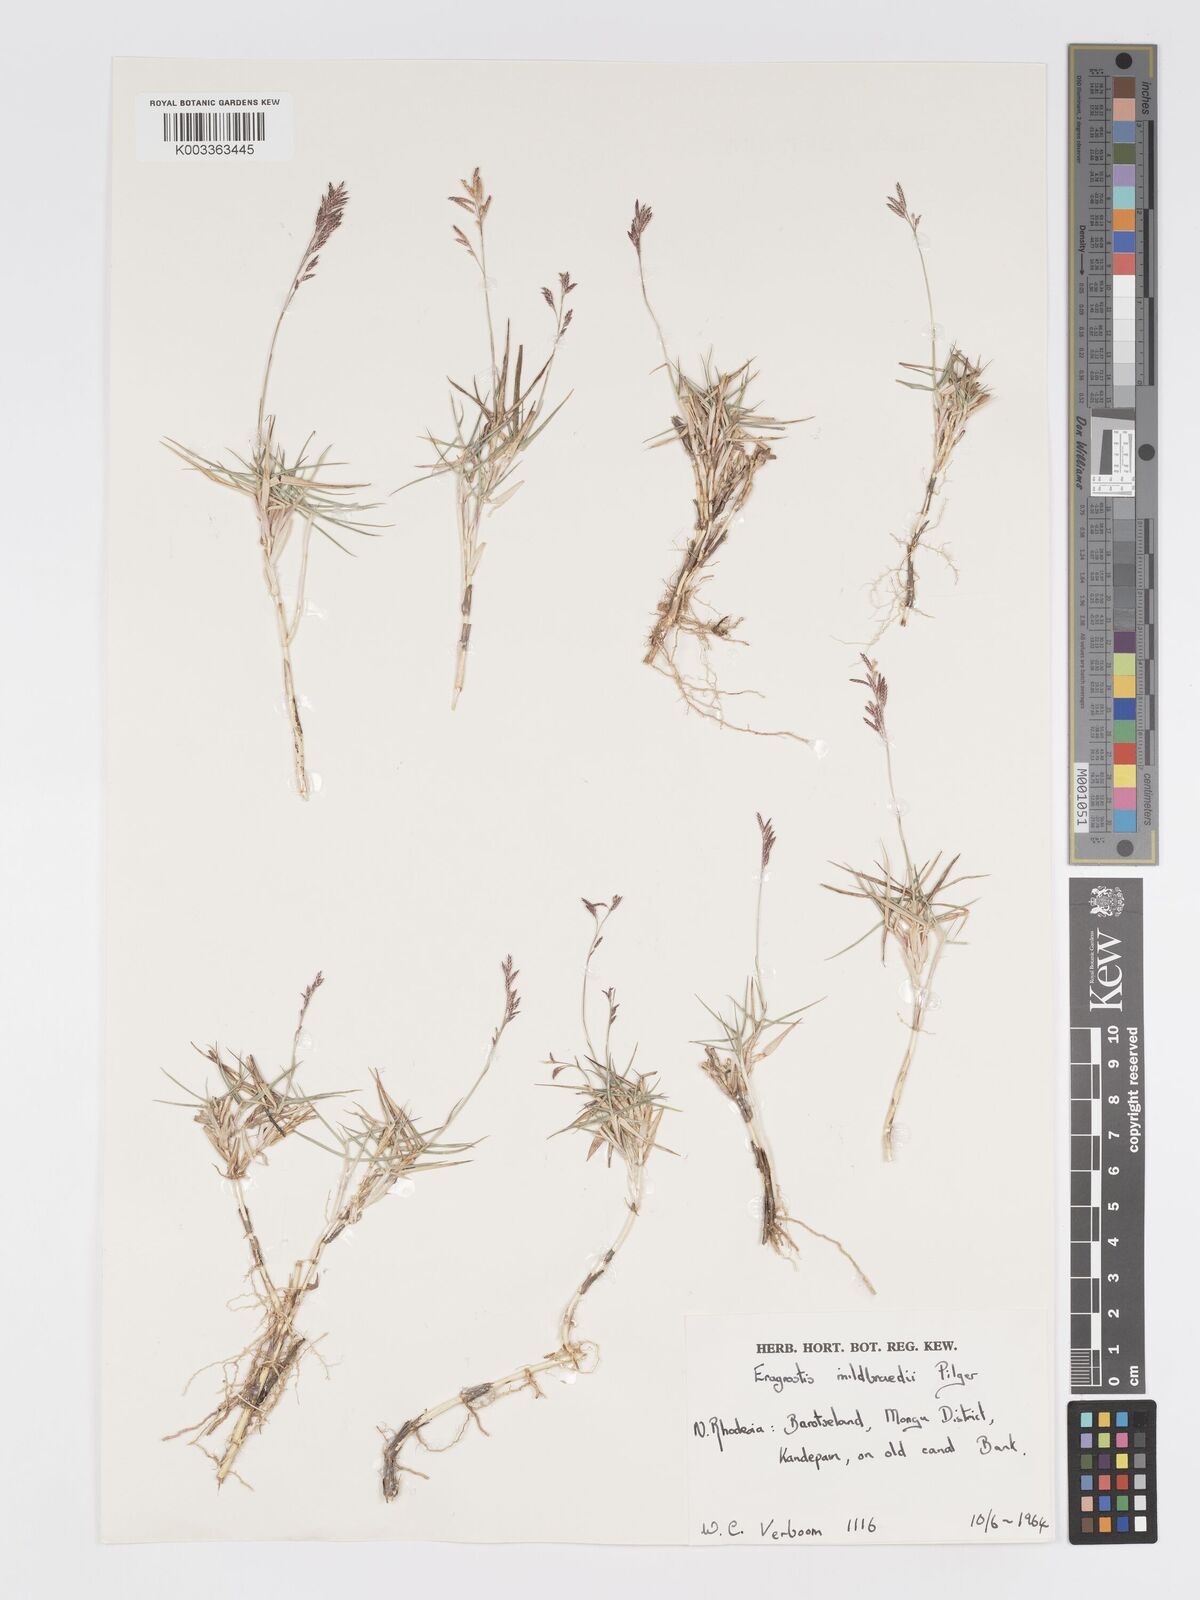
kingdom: Plantae
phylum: Tracheophyta
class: Liliopsida
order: Poales
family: Poaceae
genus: Eragrostis
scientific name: Eragrostis mildbraedii
